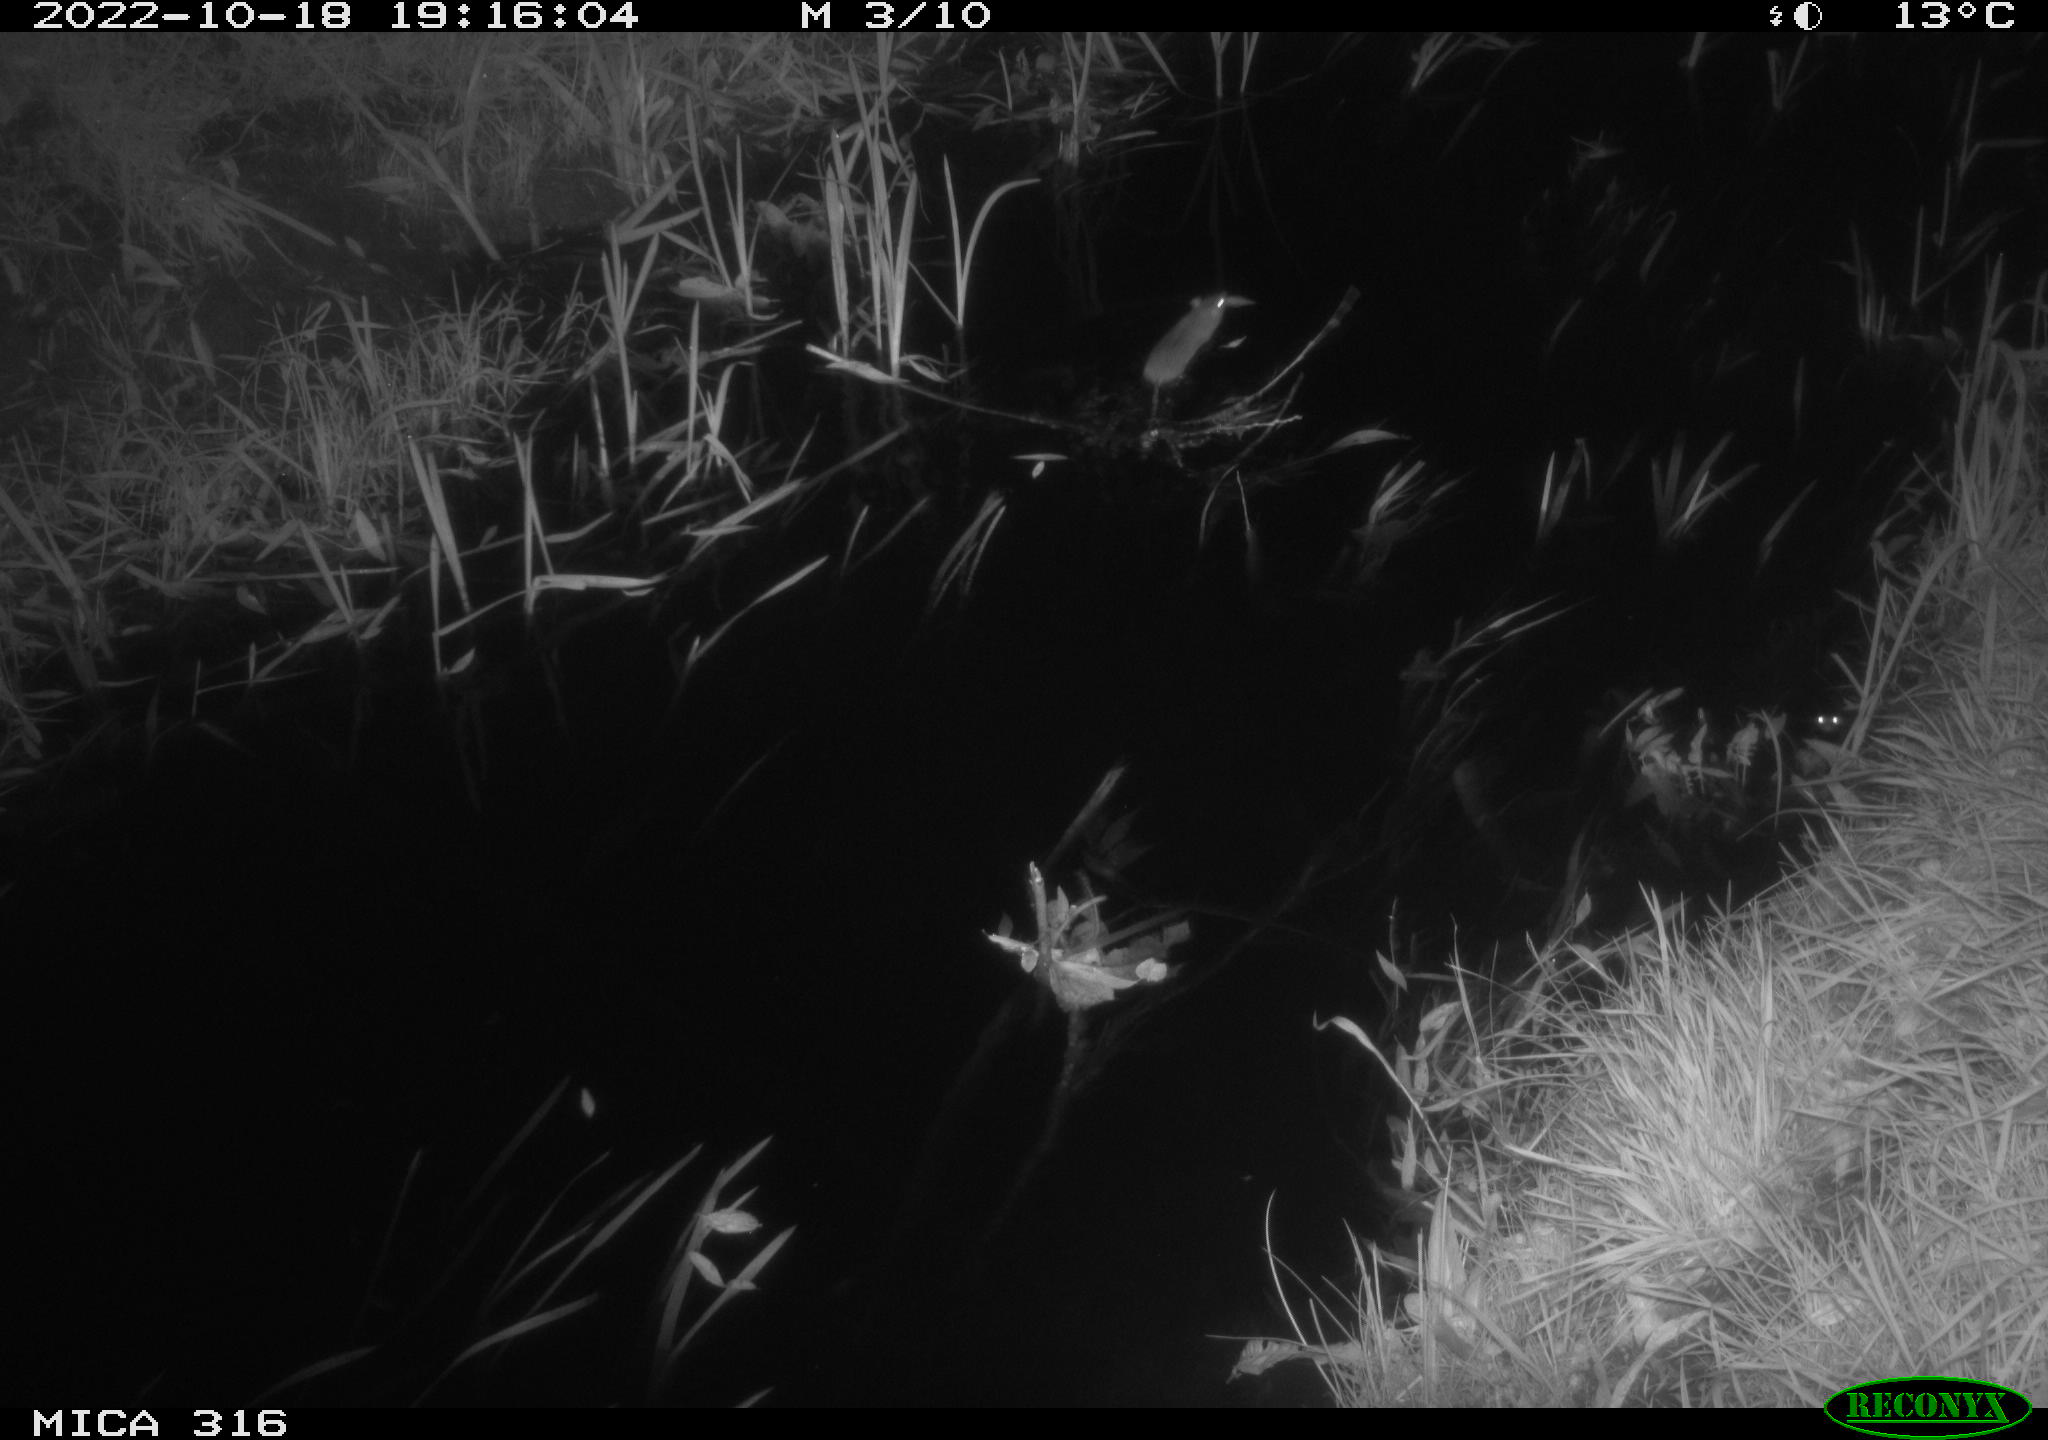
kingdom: Animalia
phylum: Chordata
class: Mammalia
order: Rodentia
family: Muridae
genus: Rattus
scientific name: Rattus norvegicus
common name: Brown rat
